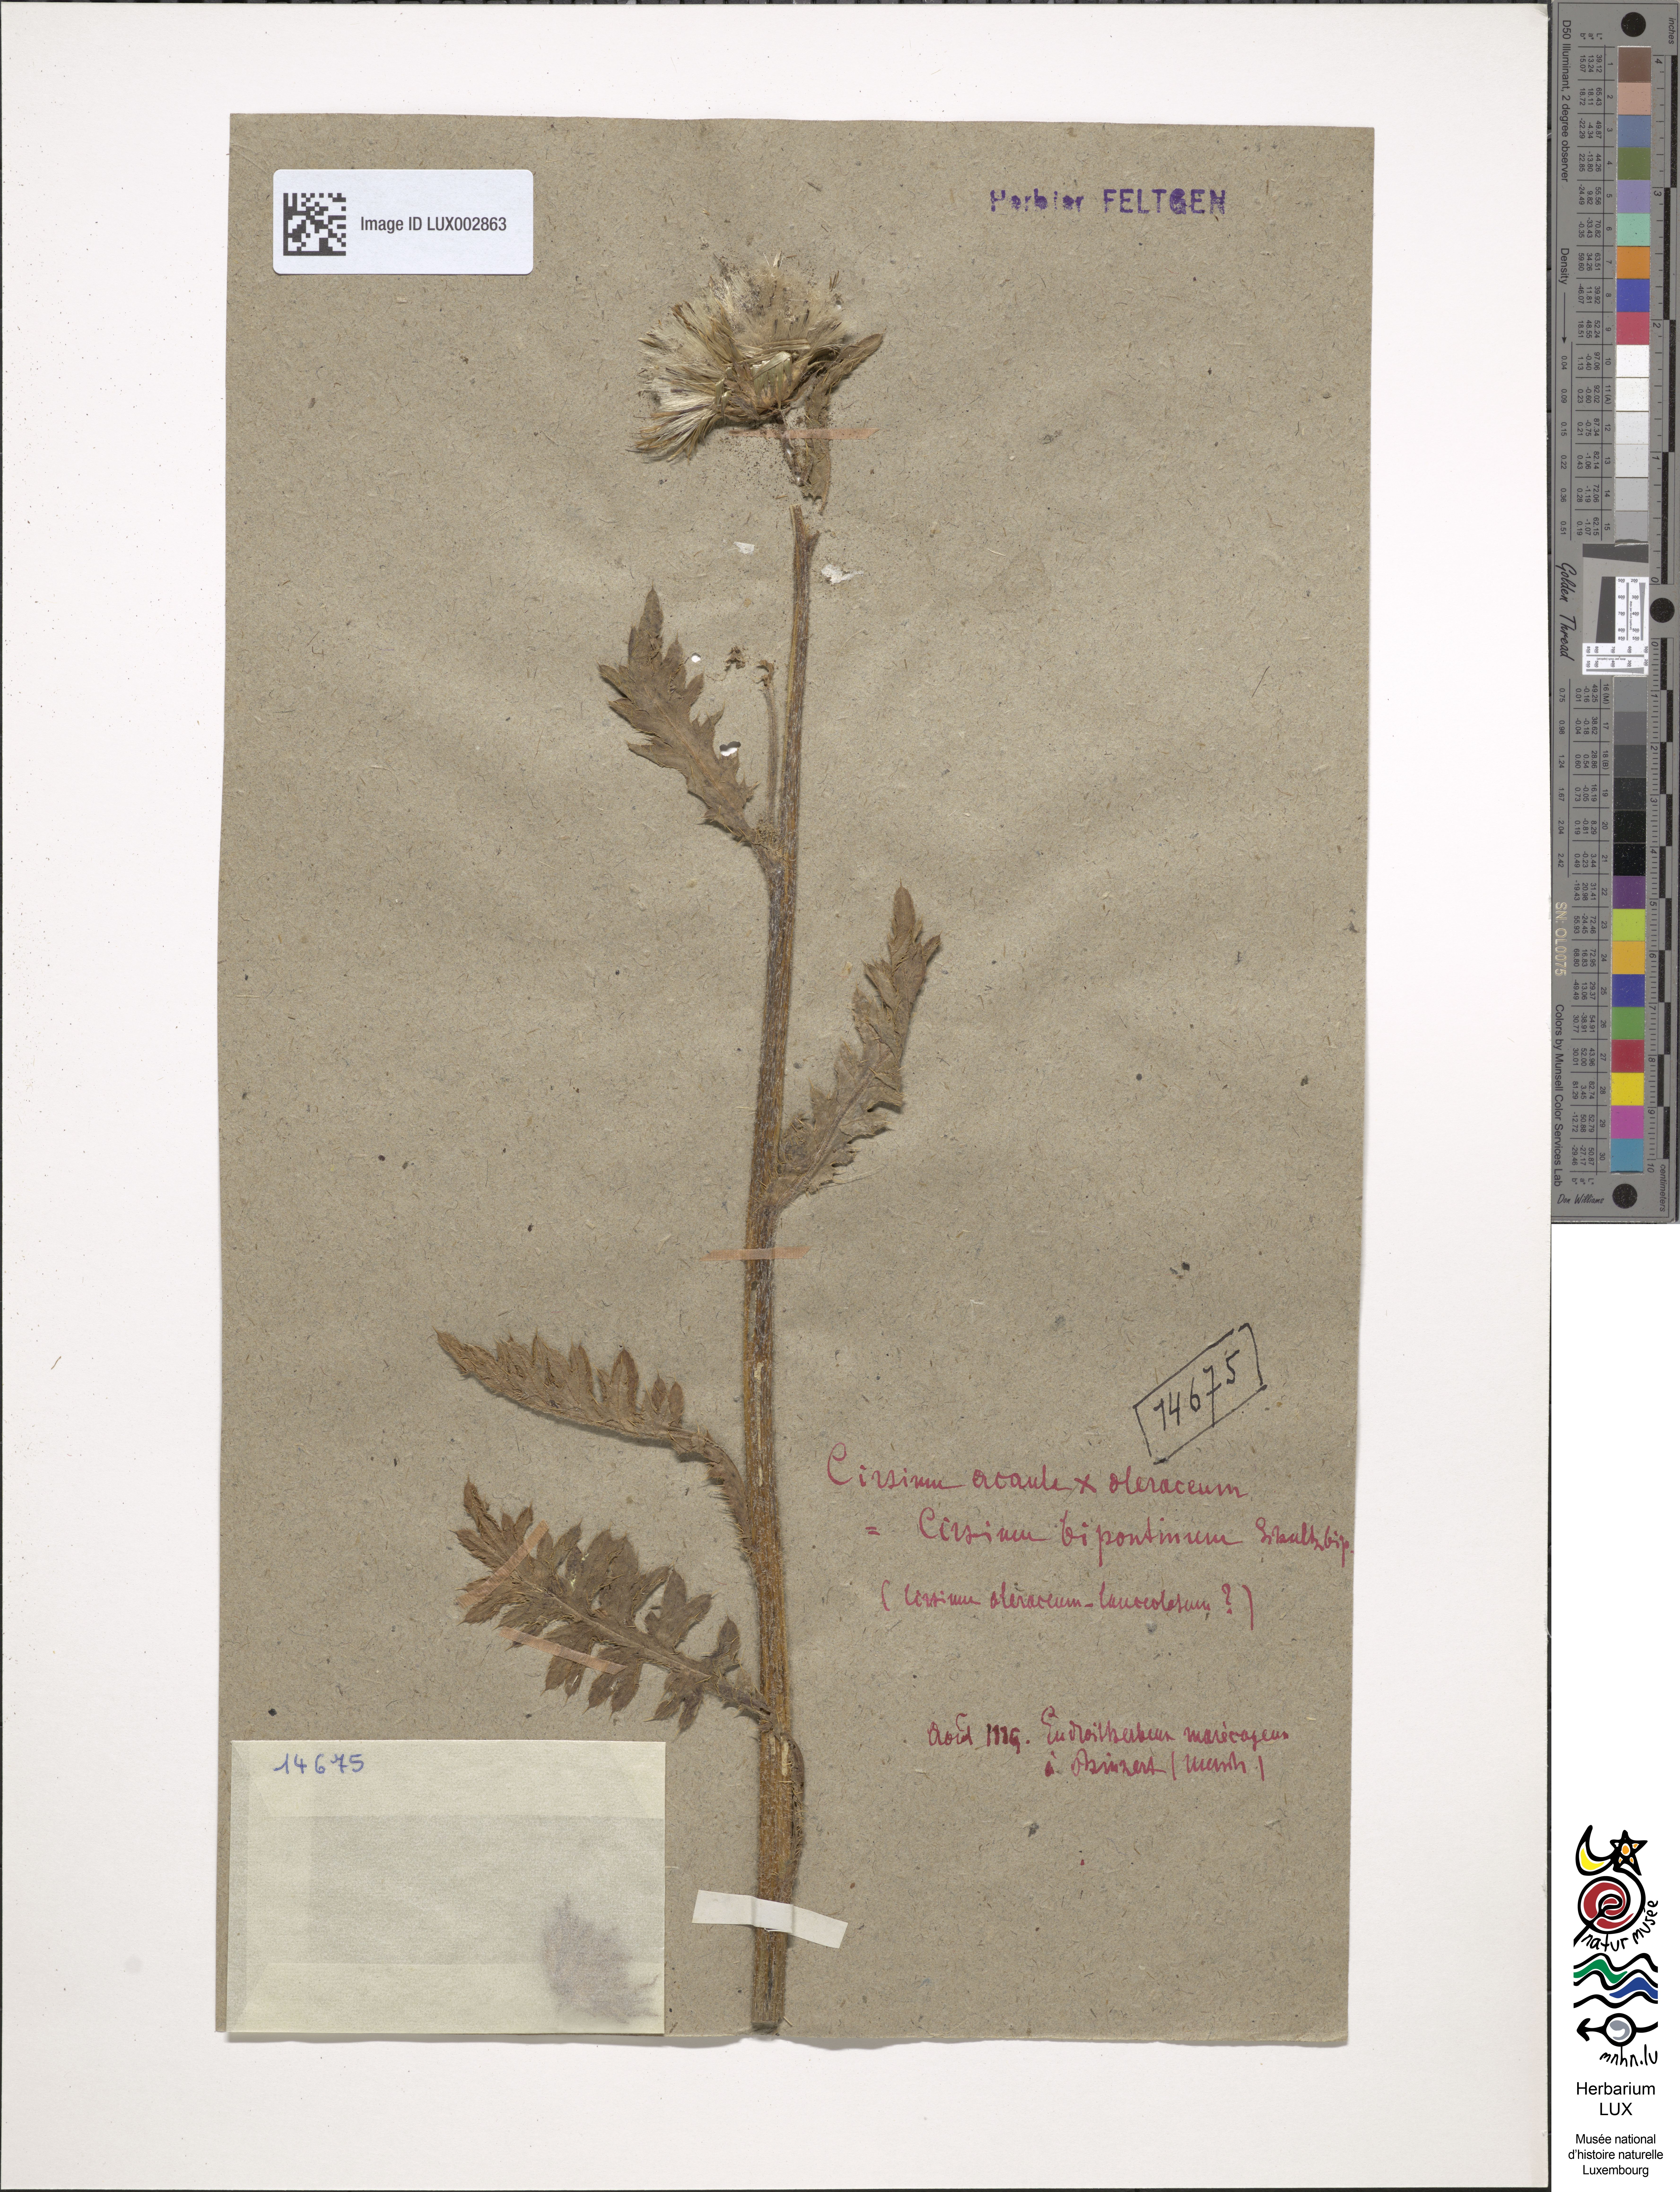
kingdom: Plantae
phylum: Tracheophyta
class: Magnoliopsida
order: Asterales
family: Asteraceae
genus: Cirsium
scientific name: Cirsium rigens
